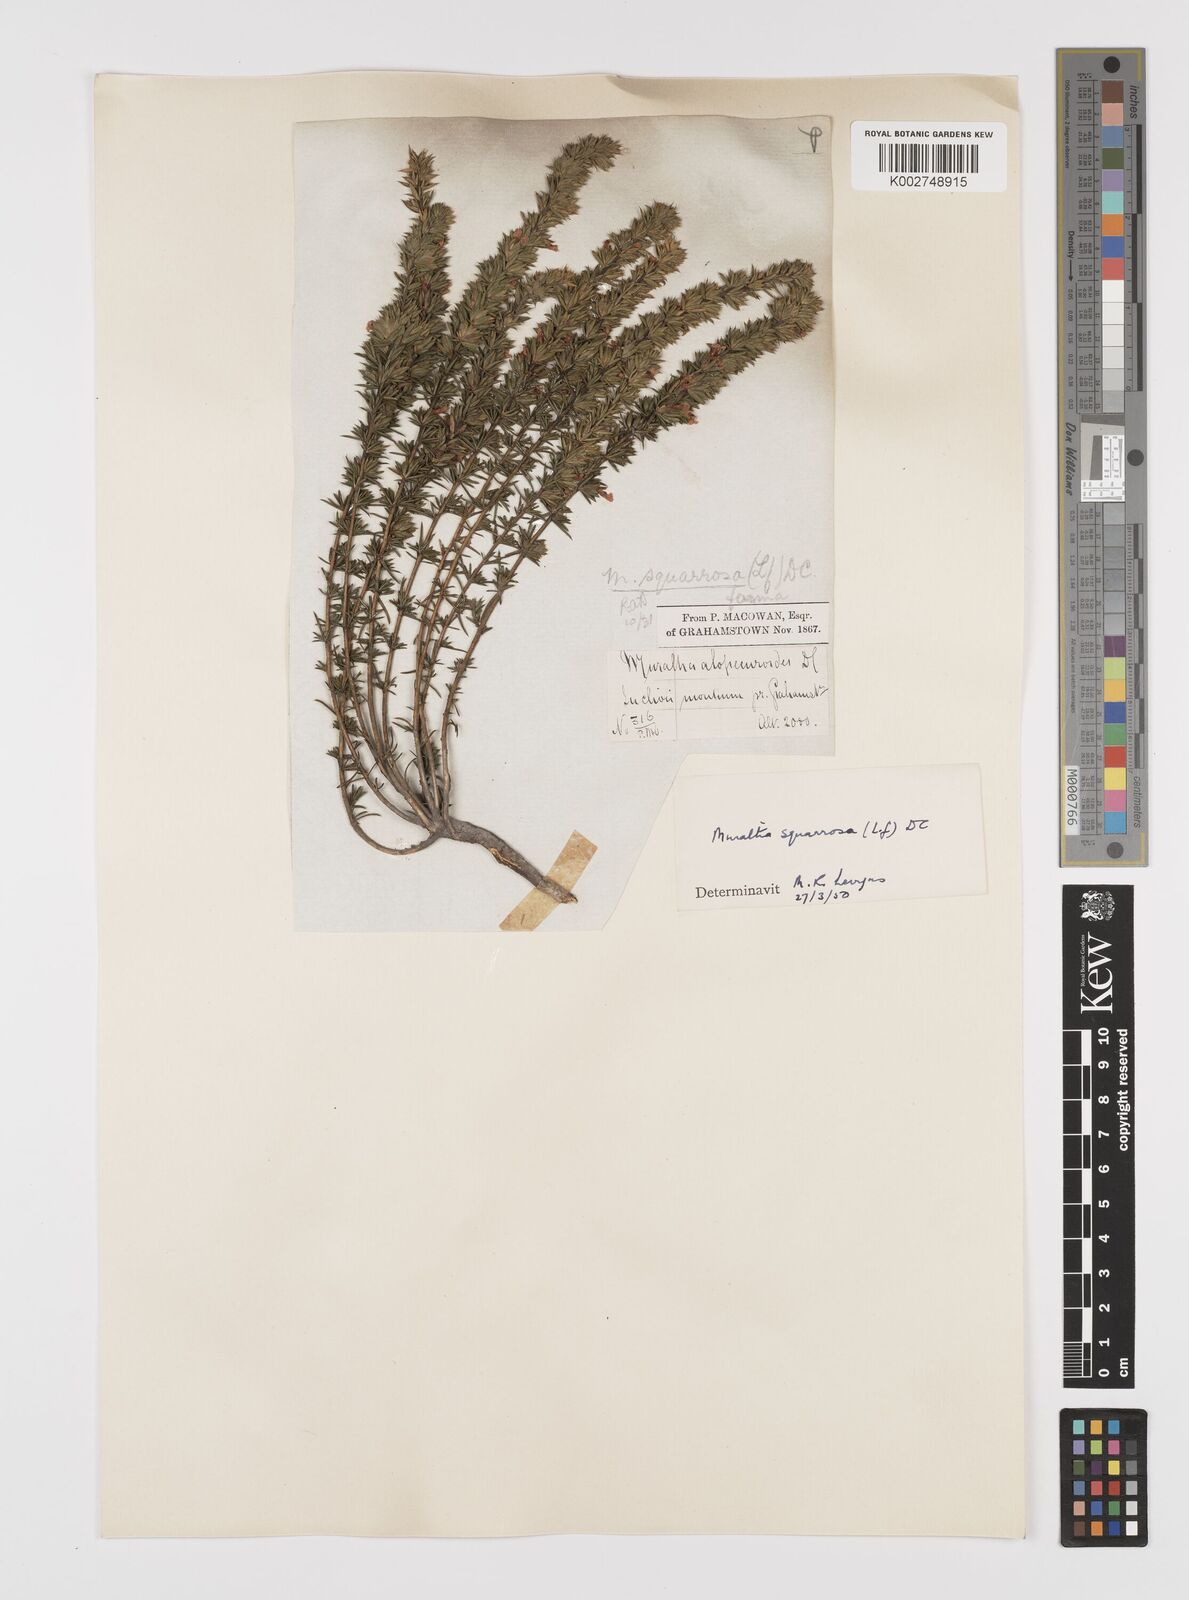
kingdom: Plantae
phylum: Tracheophyta
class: Magnoliopsida
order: Fabales
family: Polygalaceae
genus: Muraltia
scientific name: Muraltia squarrosa
